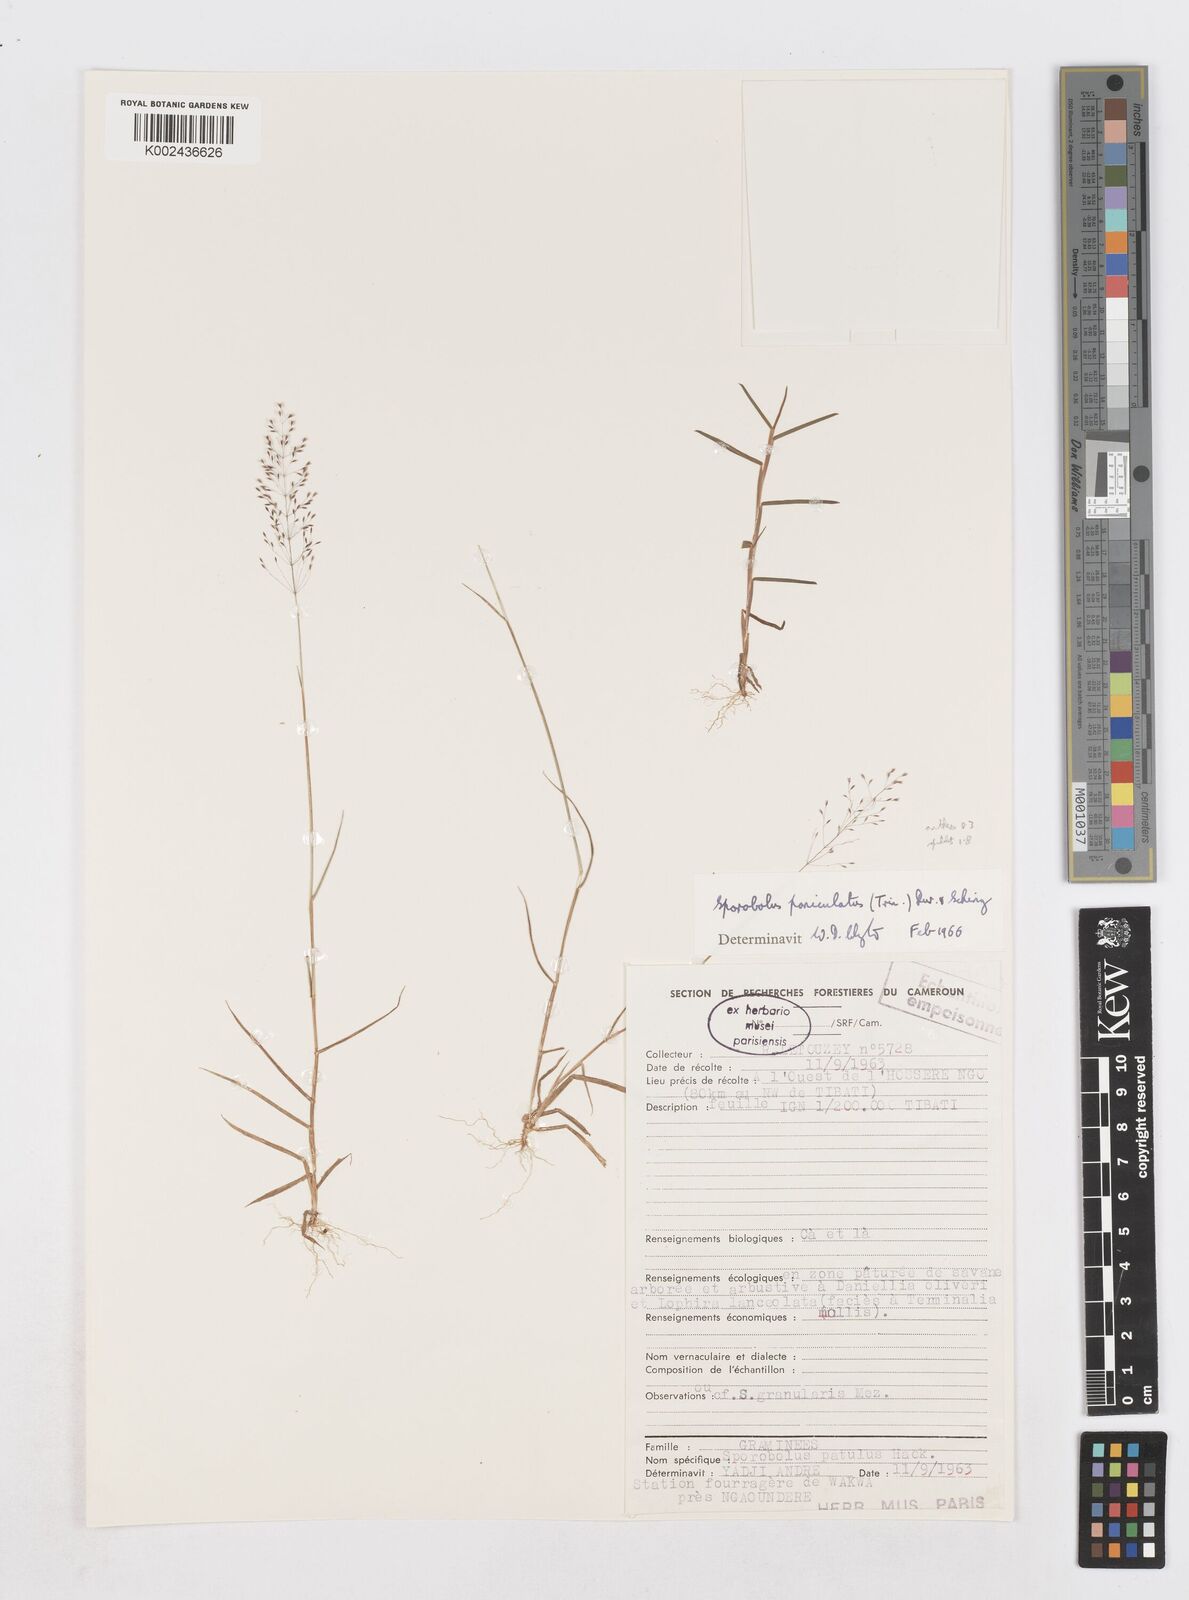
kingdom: Plantae
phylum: Tracheophyta
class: Liliopsida
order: Poales
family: Poaceae
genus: Sporobolus
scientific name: Sporobolus welwitschii
